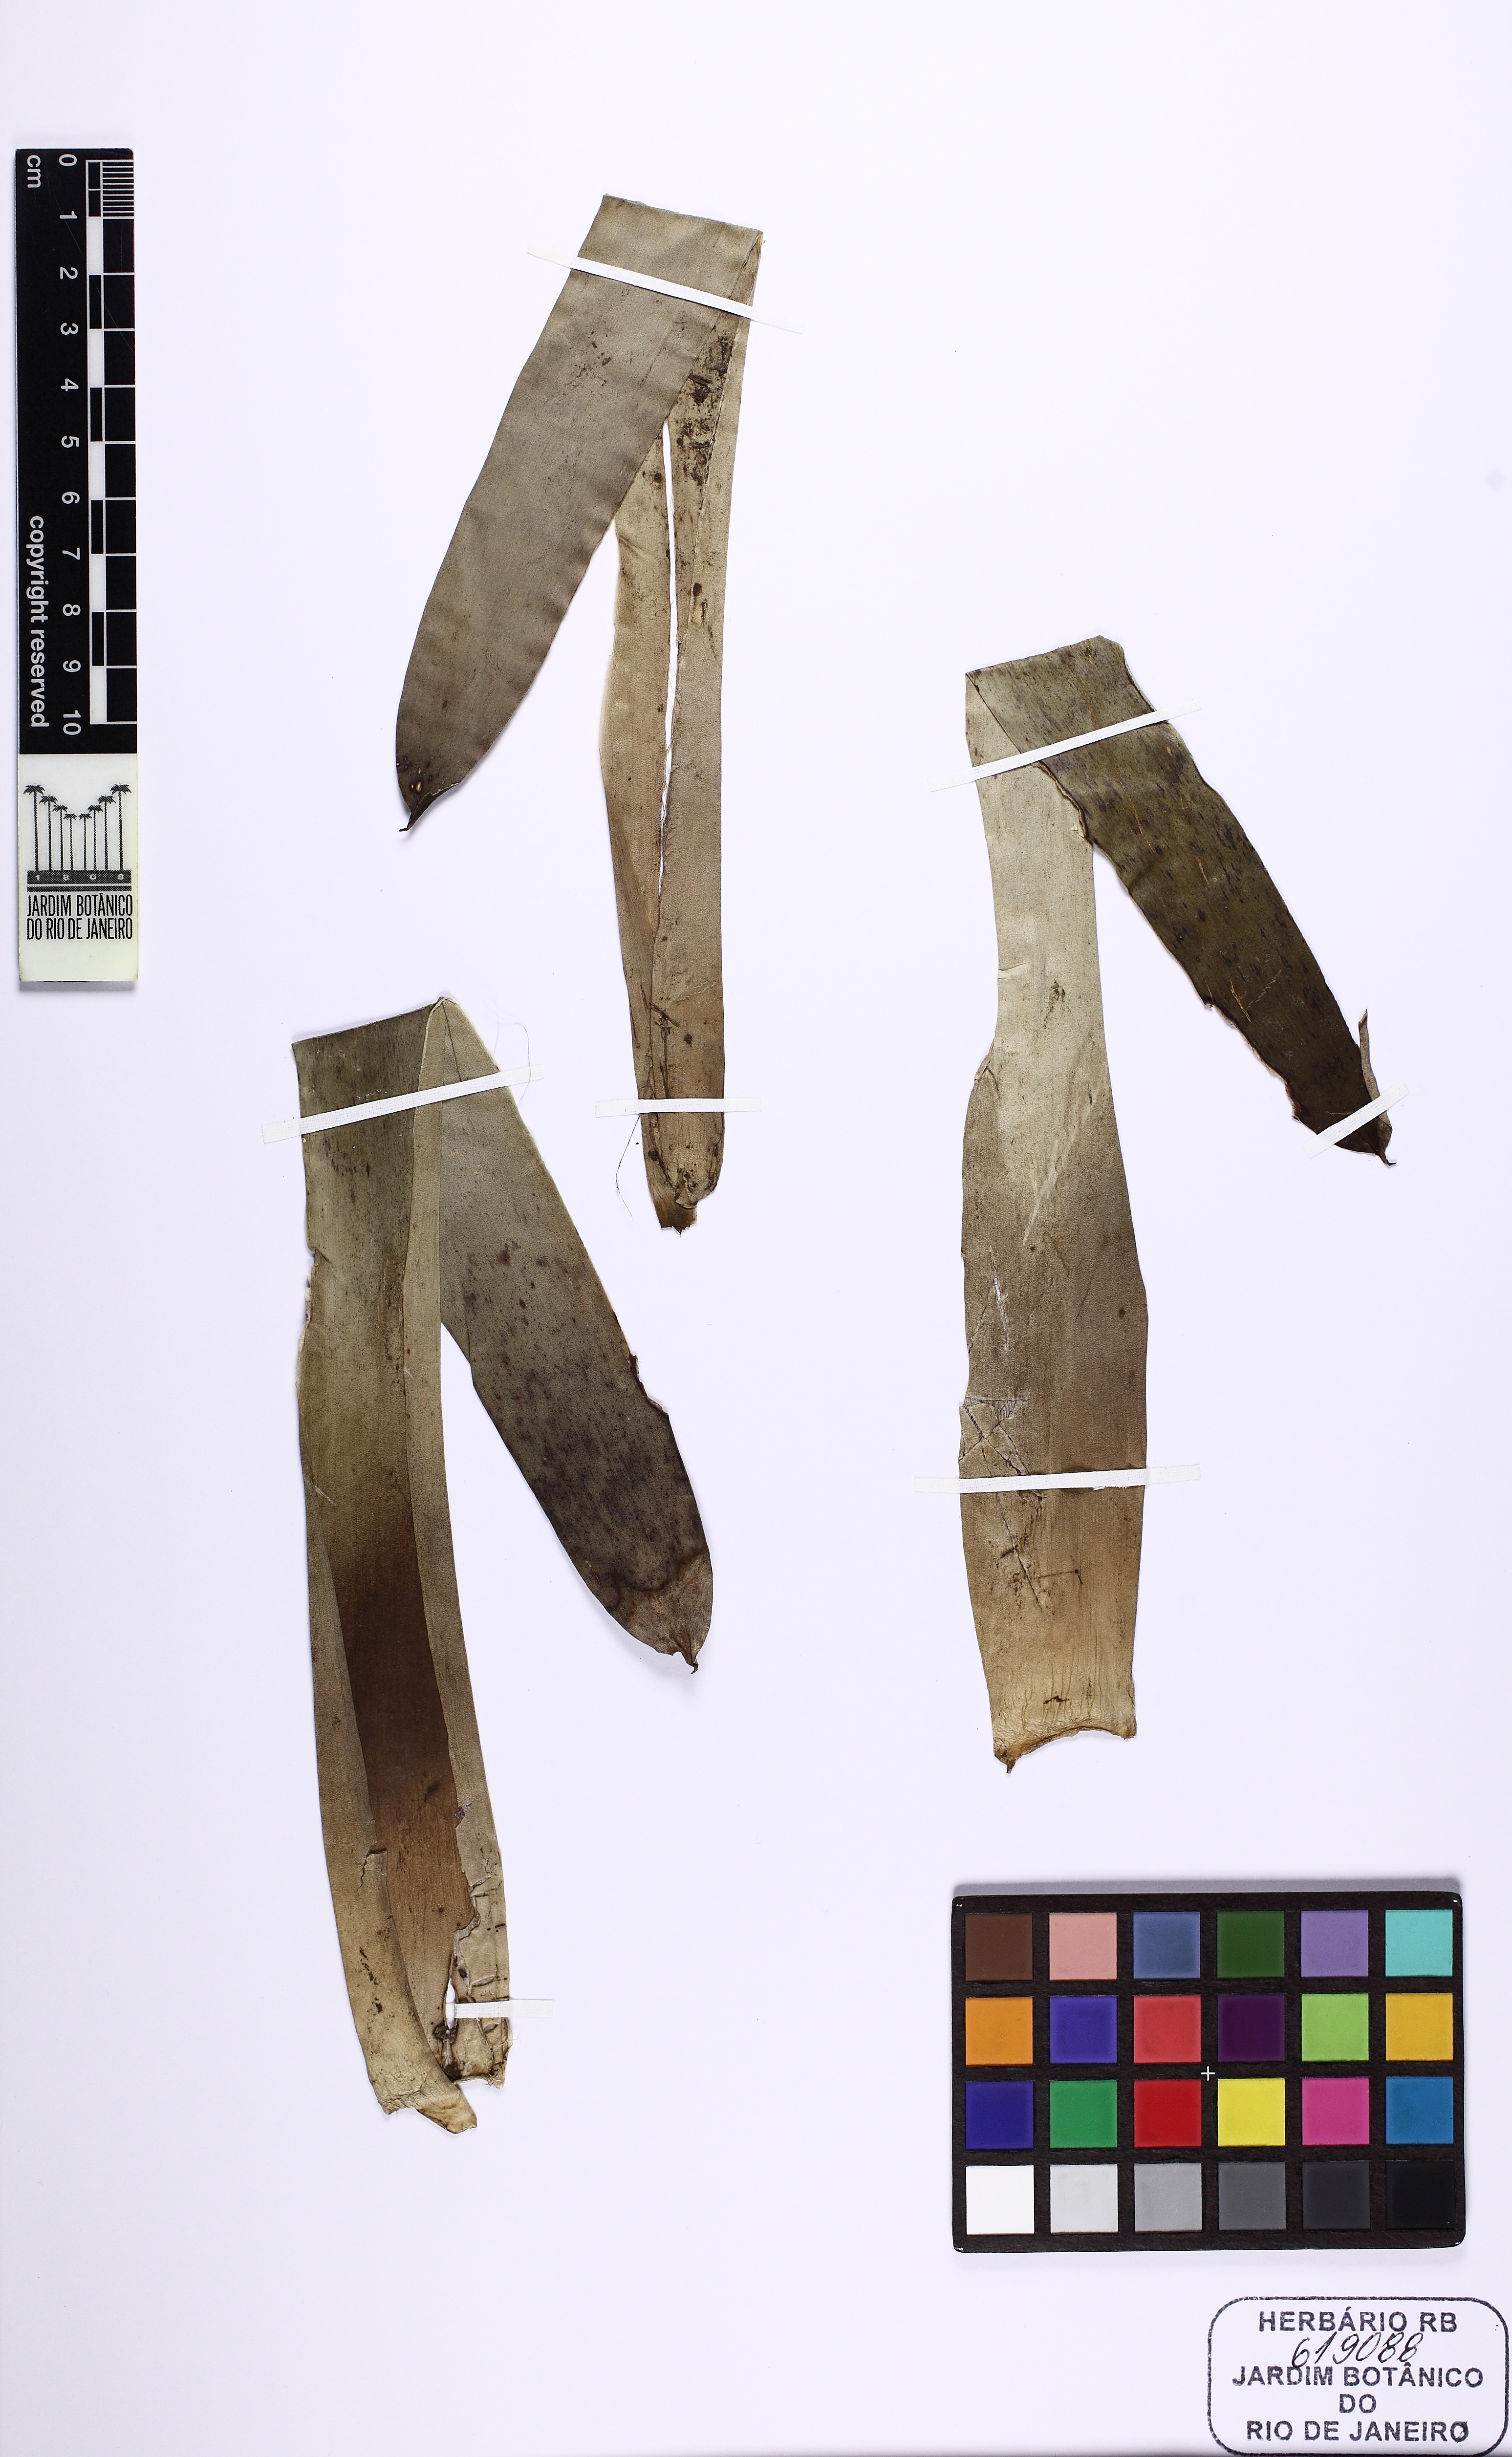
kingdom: Plantae
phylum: Tracheophyta
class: Liliopsida
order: Poales
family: Bromeliaceae
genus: Vriesea
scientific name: Vriesea billbergioides
